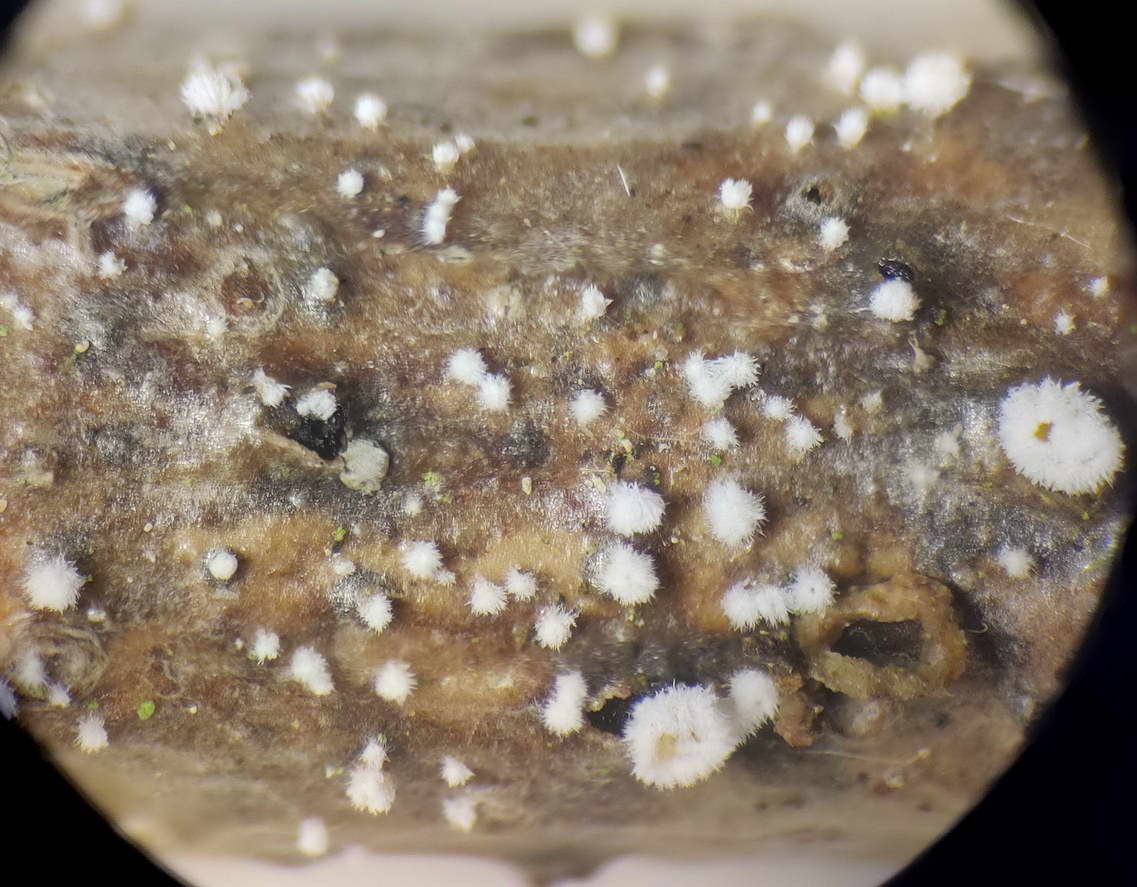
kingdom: Fungi
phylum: Ascomycota
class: Leotiomycetes
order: Helotiales
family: Lachnaceae
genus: Capitotricha
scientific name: Capitotricha bicolor
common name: prægtig frynseskive
